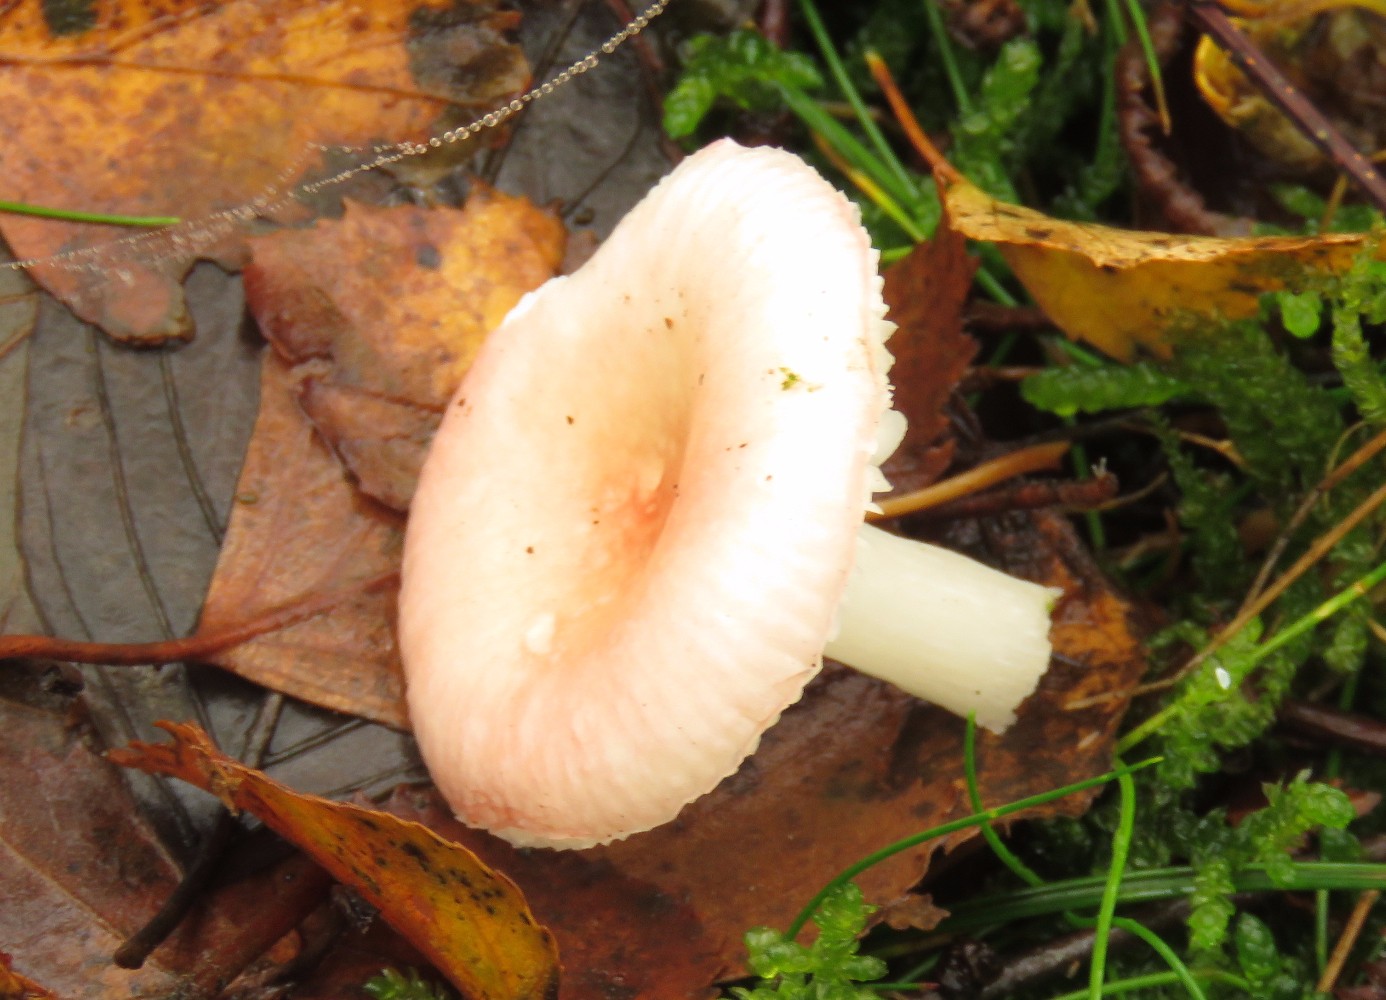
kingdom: Fungi
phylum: Basidiomycota
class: Agaricomycetes
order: Russulales
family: Russulaceae
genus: Russula
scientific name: Russula betularum
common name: bleg gift-skørhat
